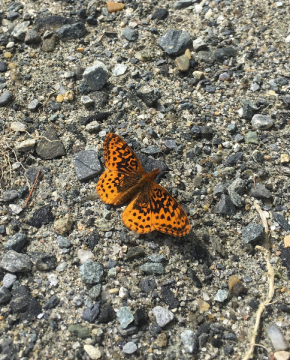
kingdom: Animalia
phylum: Arthropoda
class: Insecta
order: Lepidoptera
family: Nymphalidae
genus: Clossiana
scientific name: Clossiana toddi
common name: Meadow Fritillary
